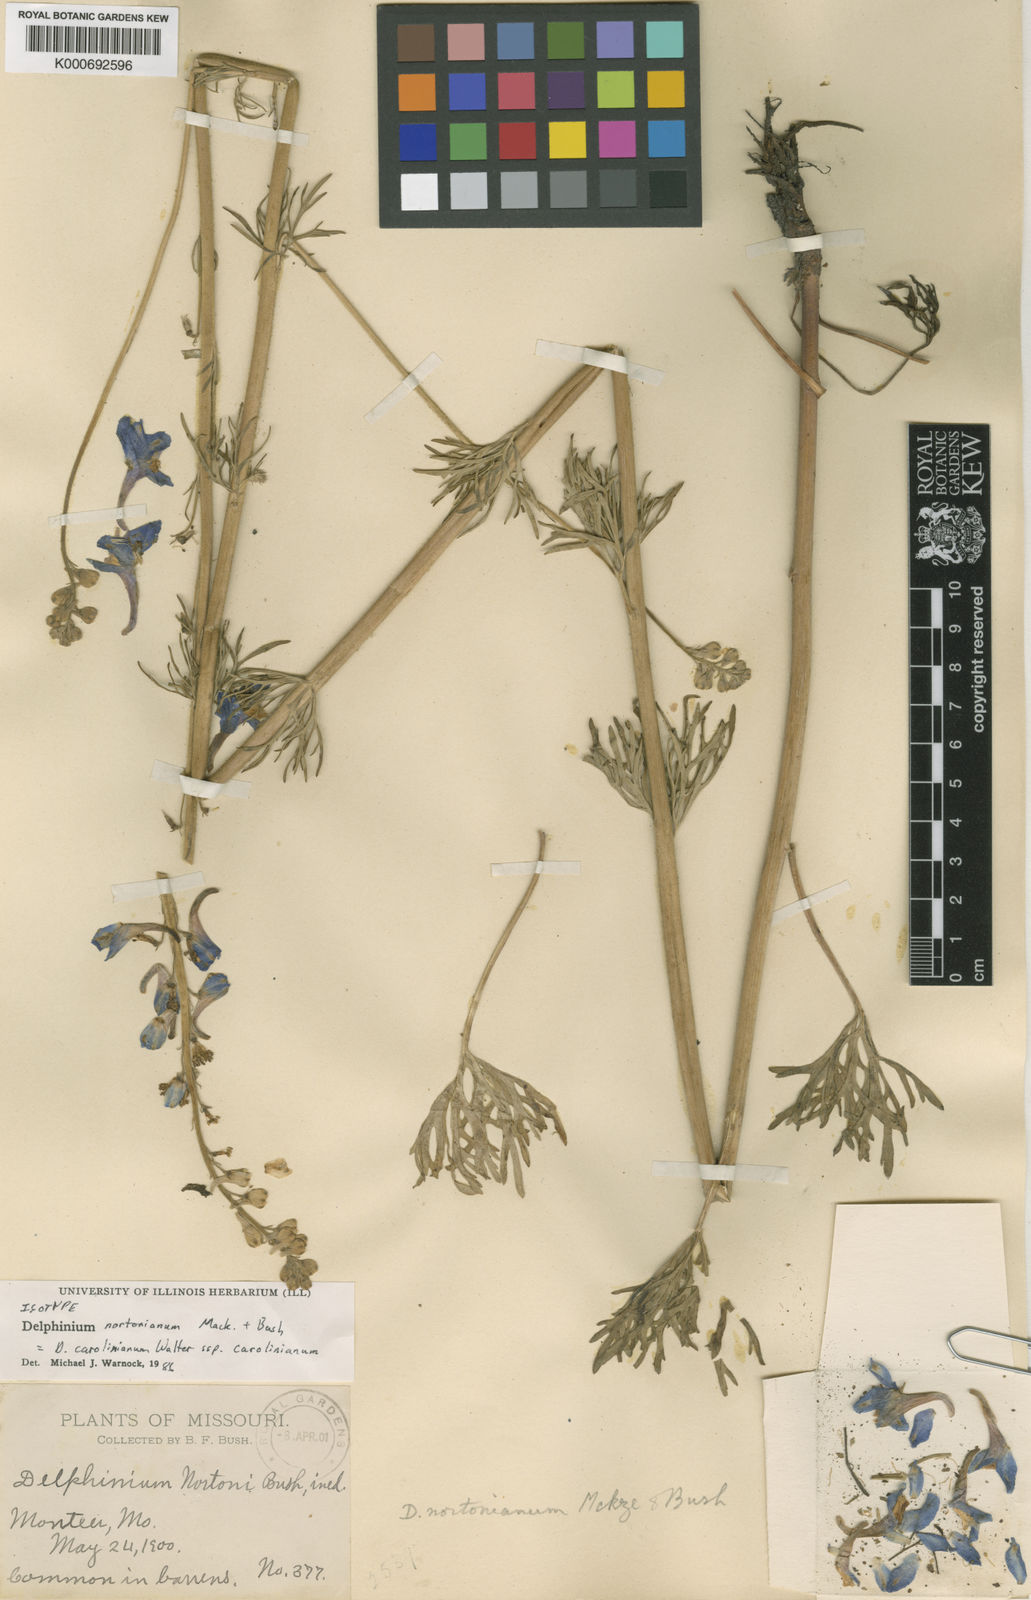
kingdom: Plantae
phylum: Tracheophyta
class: Magnoliopsida
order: Ranunculales
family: Ranunculaceae
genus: Delphinium
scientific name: Delphinium carolinianum
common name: Carolina larkspur
